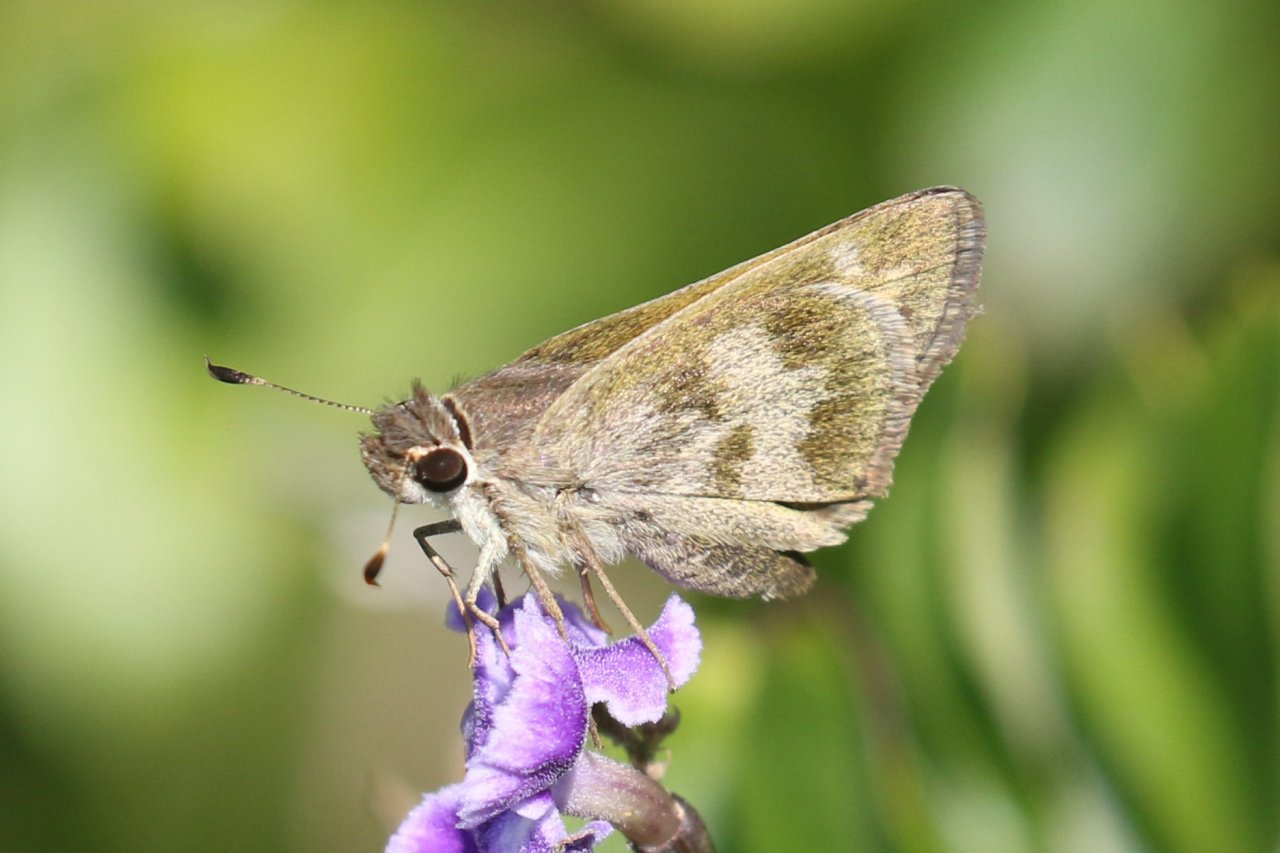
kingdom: Animalia
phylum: Arthropoda
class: Insecta
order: Lepidoptera
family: Hesperiidae
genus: Polites
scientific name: Polites vibex
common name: Whirlabout
